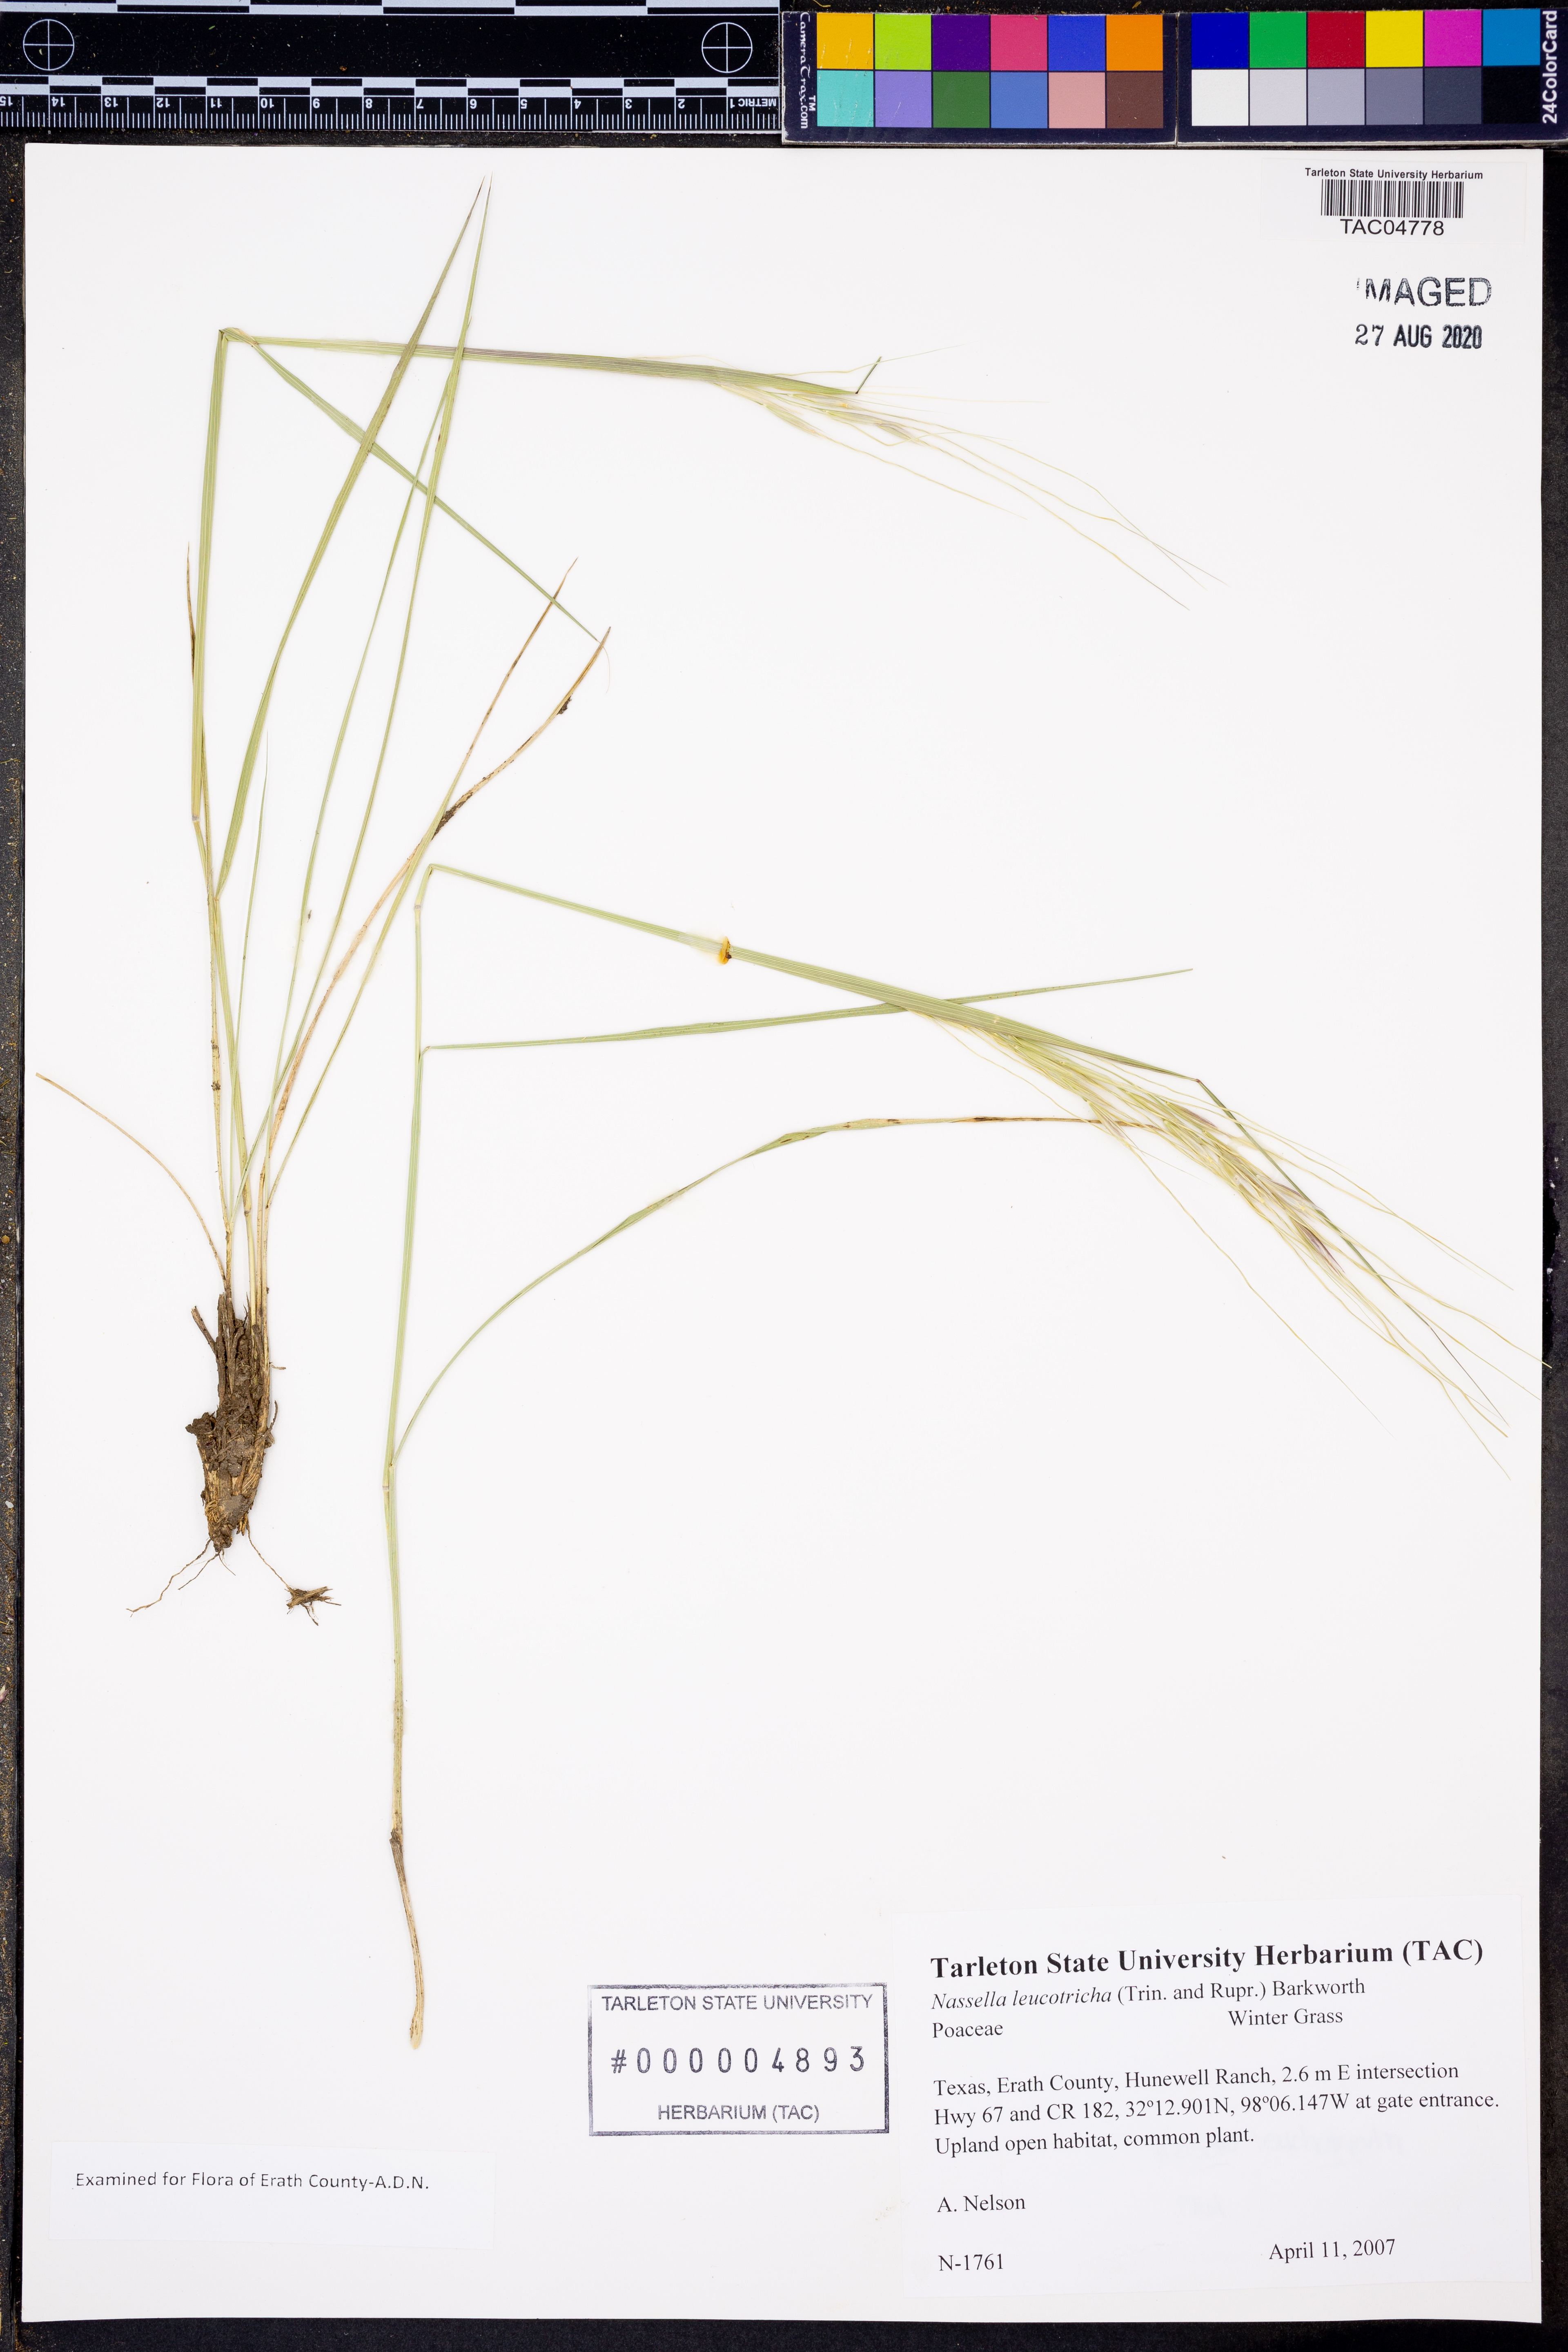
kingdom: Plantae
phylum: Tracheophyta
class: Liliopsida
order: Poales
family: Poaceae
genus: Nassella
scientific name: Nassella leucotricha
